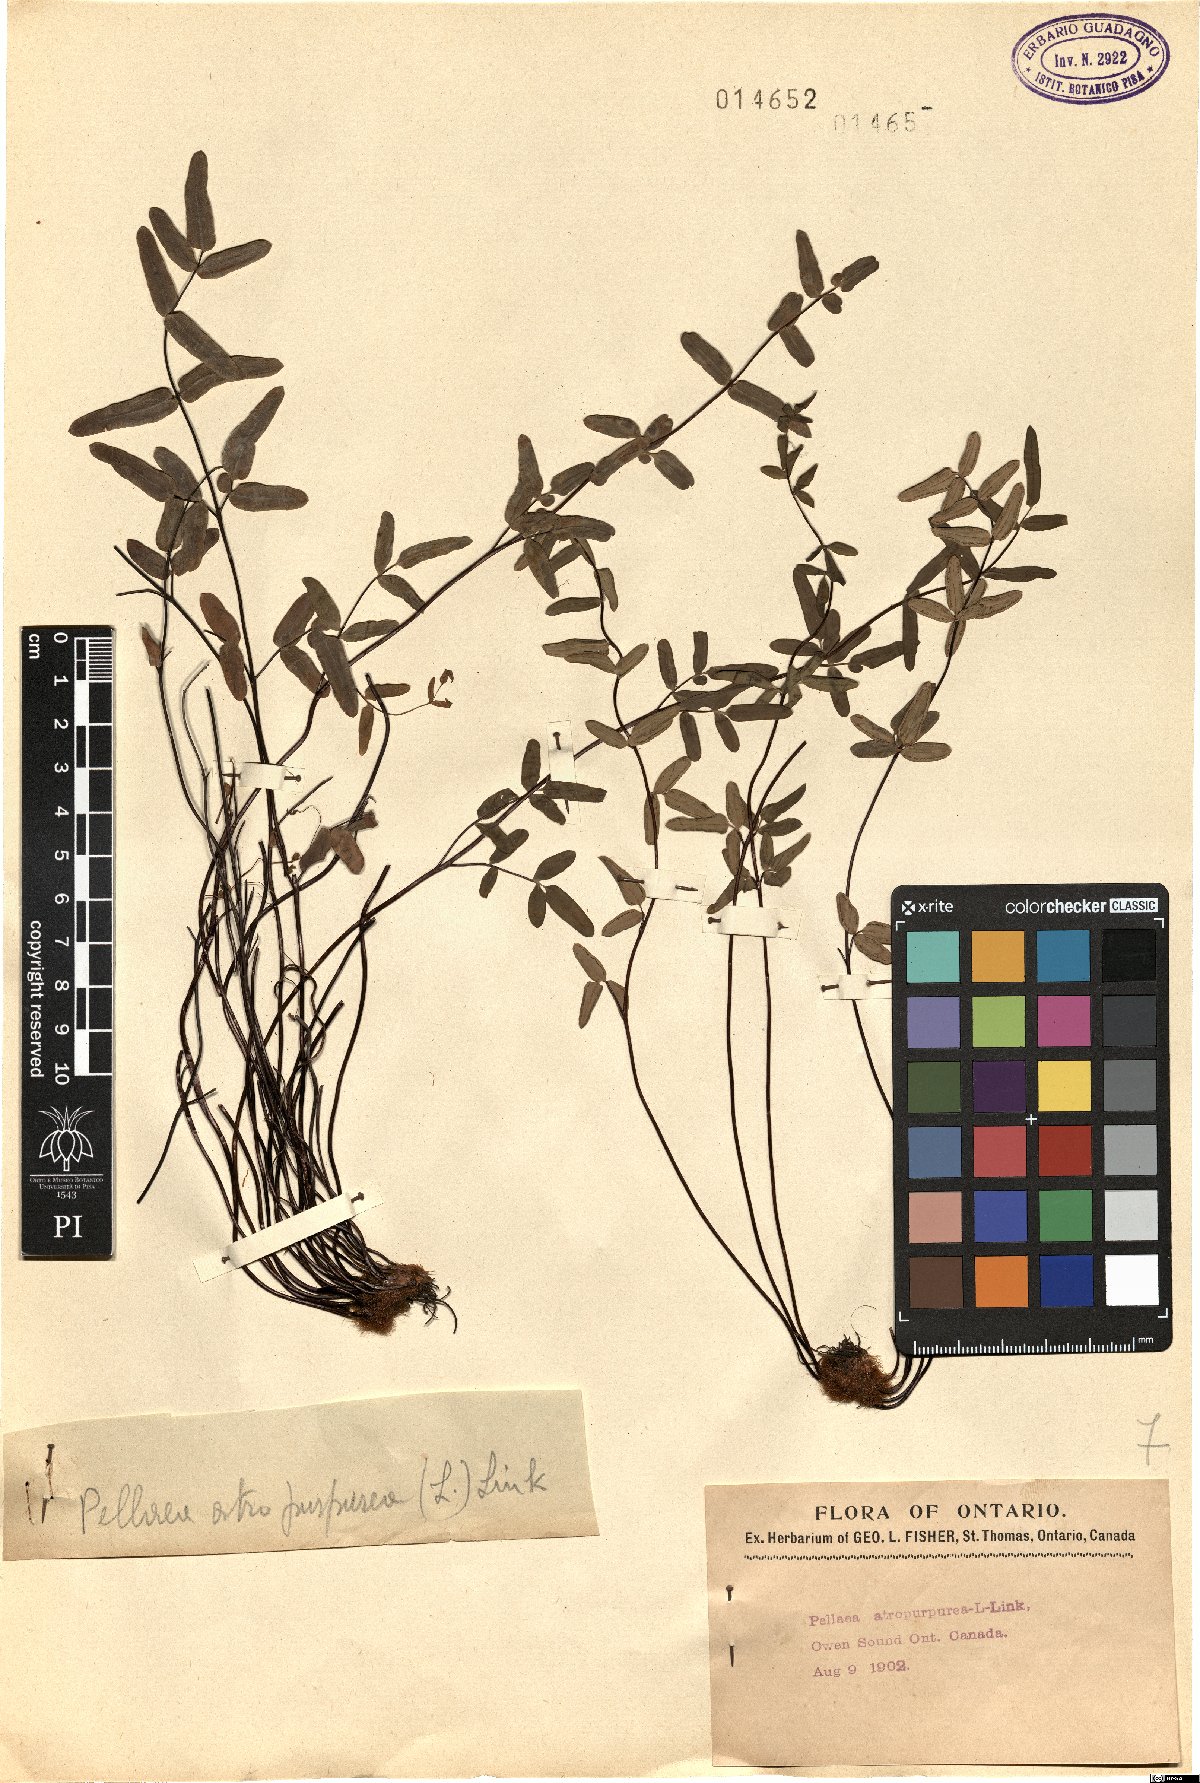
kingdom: Plantae
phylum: Tracheophyta
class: Polypodiopsida
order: Polypodiales
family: Pteridaceae
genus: Pellaea
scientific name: Pellaea atropurpurea
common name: Hairy cliffbrake
